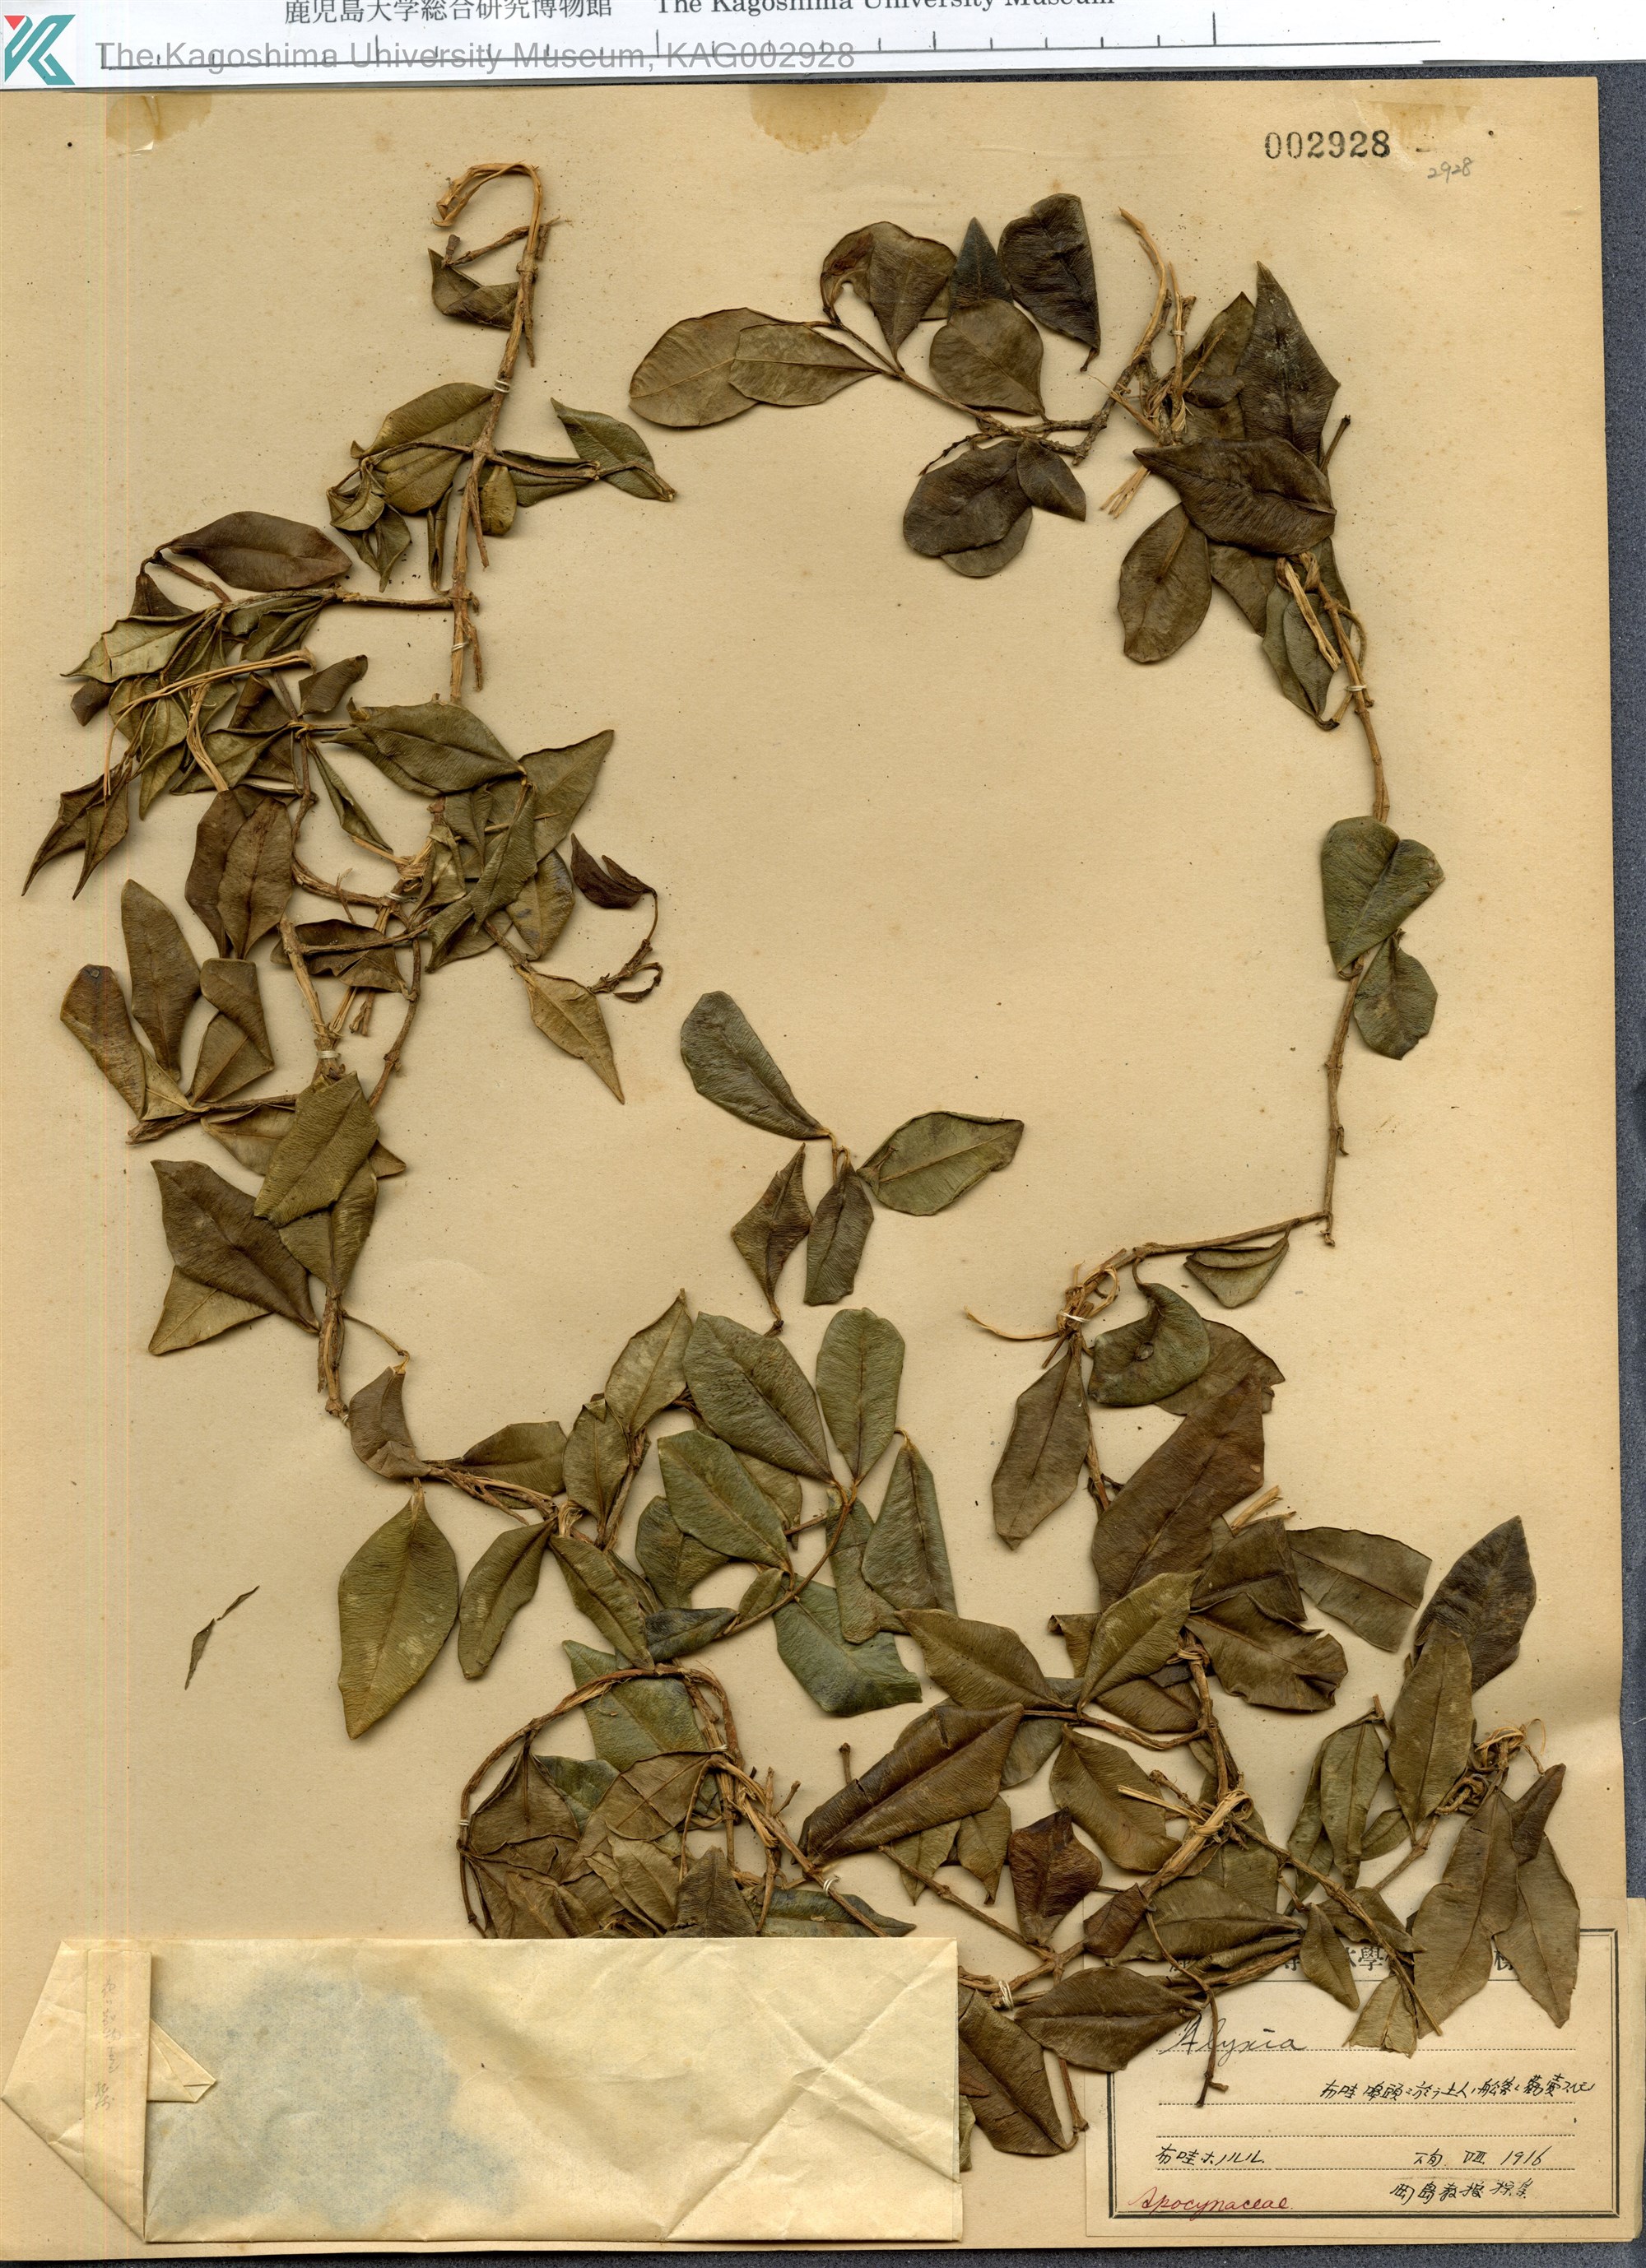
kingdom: Plantae
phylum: Tracheophyta
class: Magnoliopsida
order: Gentianales
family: Apocynaceae
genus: Alyxia
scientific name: Alyxia
